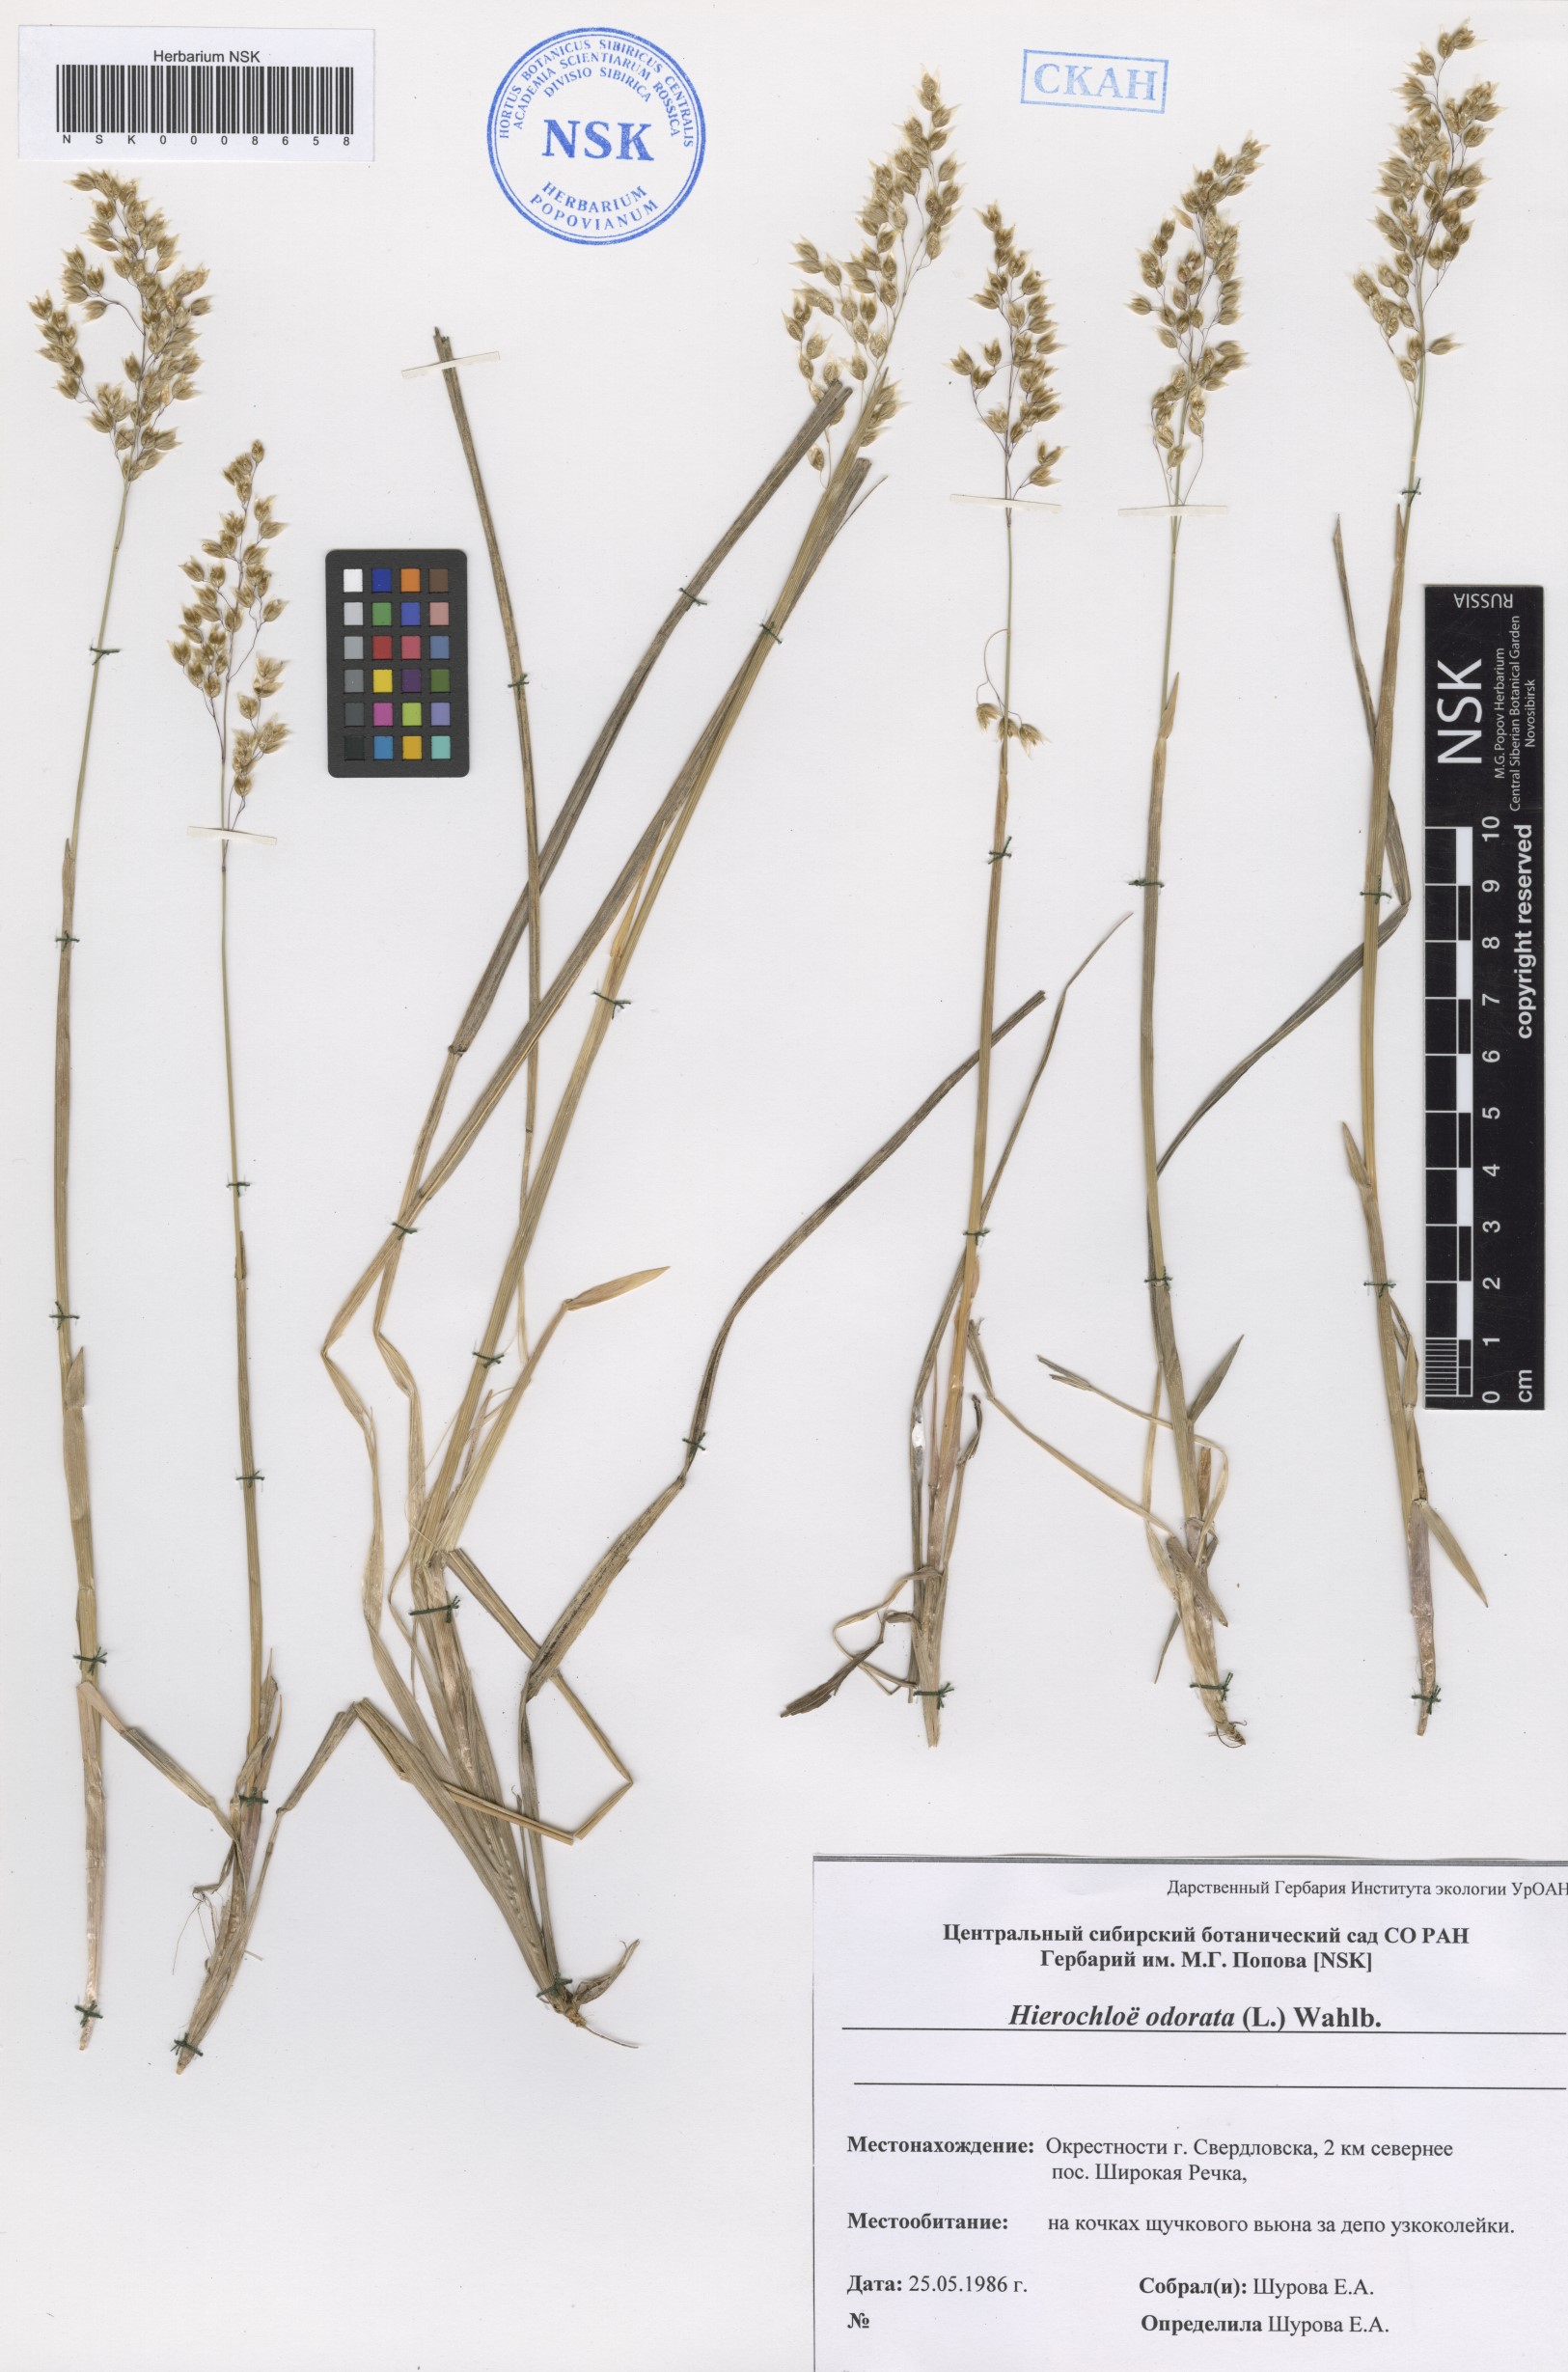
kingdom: Plantae
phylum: Tracheophyta
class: Liliopsida
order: Poales
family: Poaceae
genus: Anthoxanthum
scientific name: Anthoxanthum nitens
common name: Holy grass
